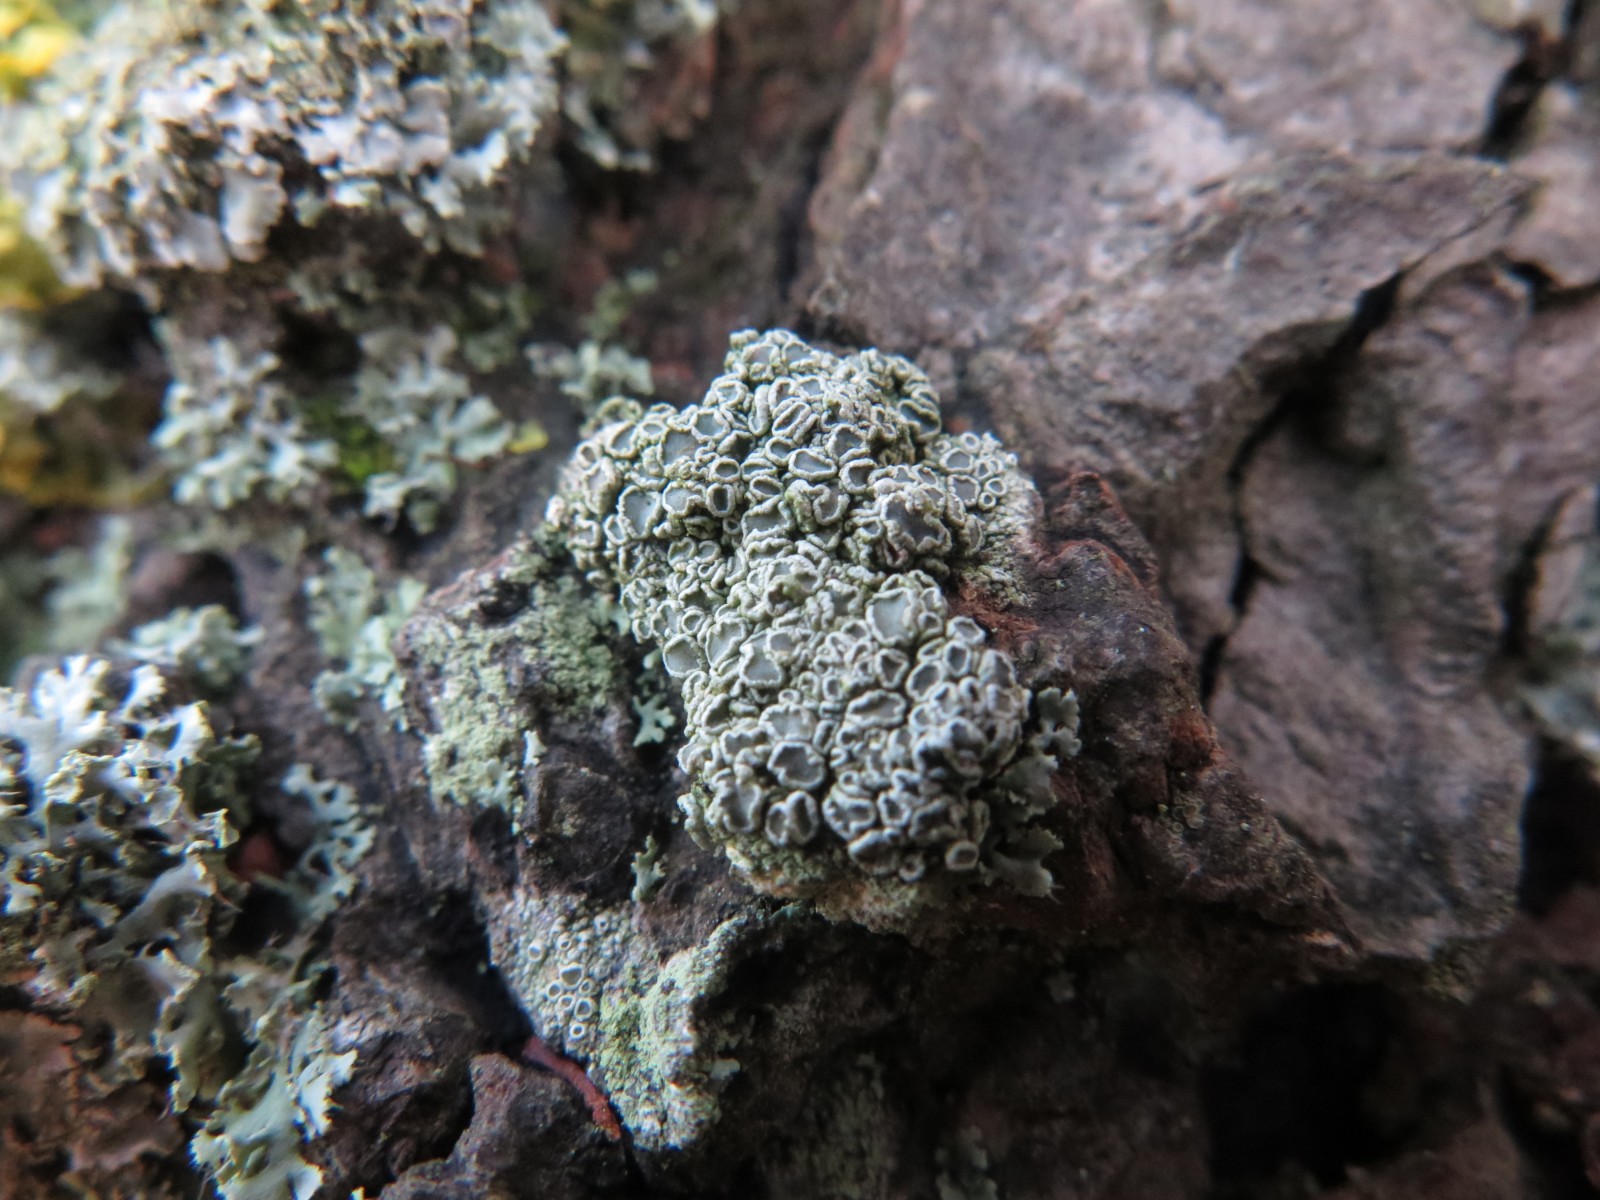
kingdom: Fungi
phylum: Ascomycota
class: Lecanoromycetes
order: Lecanorales
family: Lecanoraceae
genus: Lecanora
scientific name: Lecanora chlarotera
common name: brun kantskivelav
